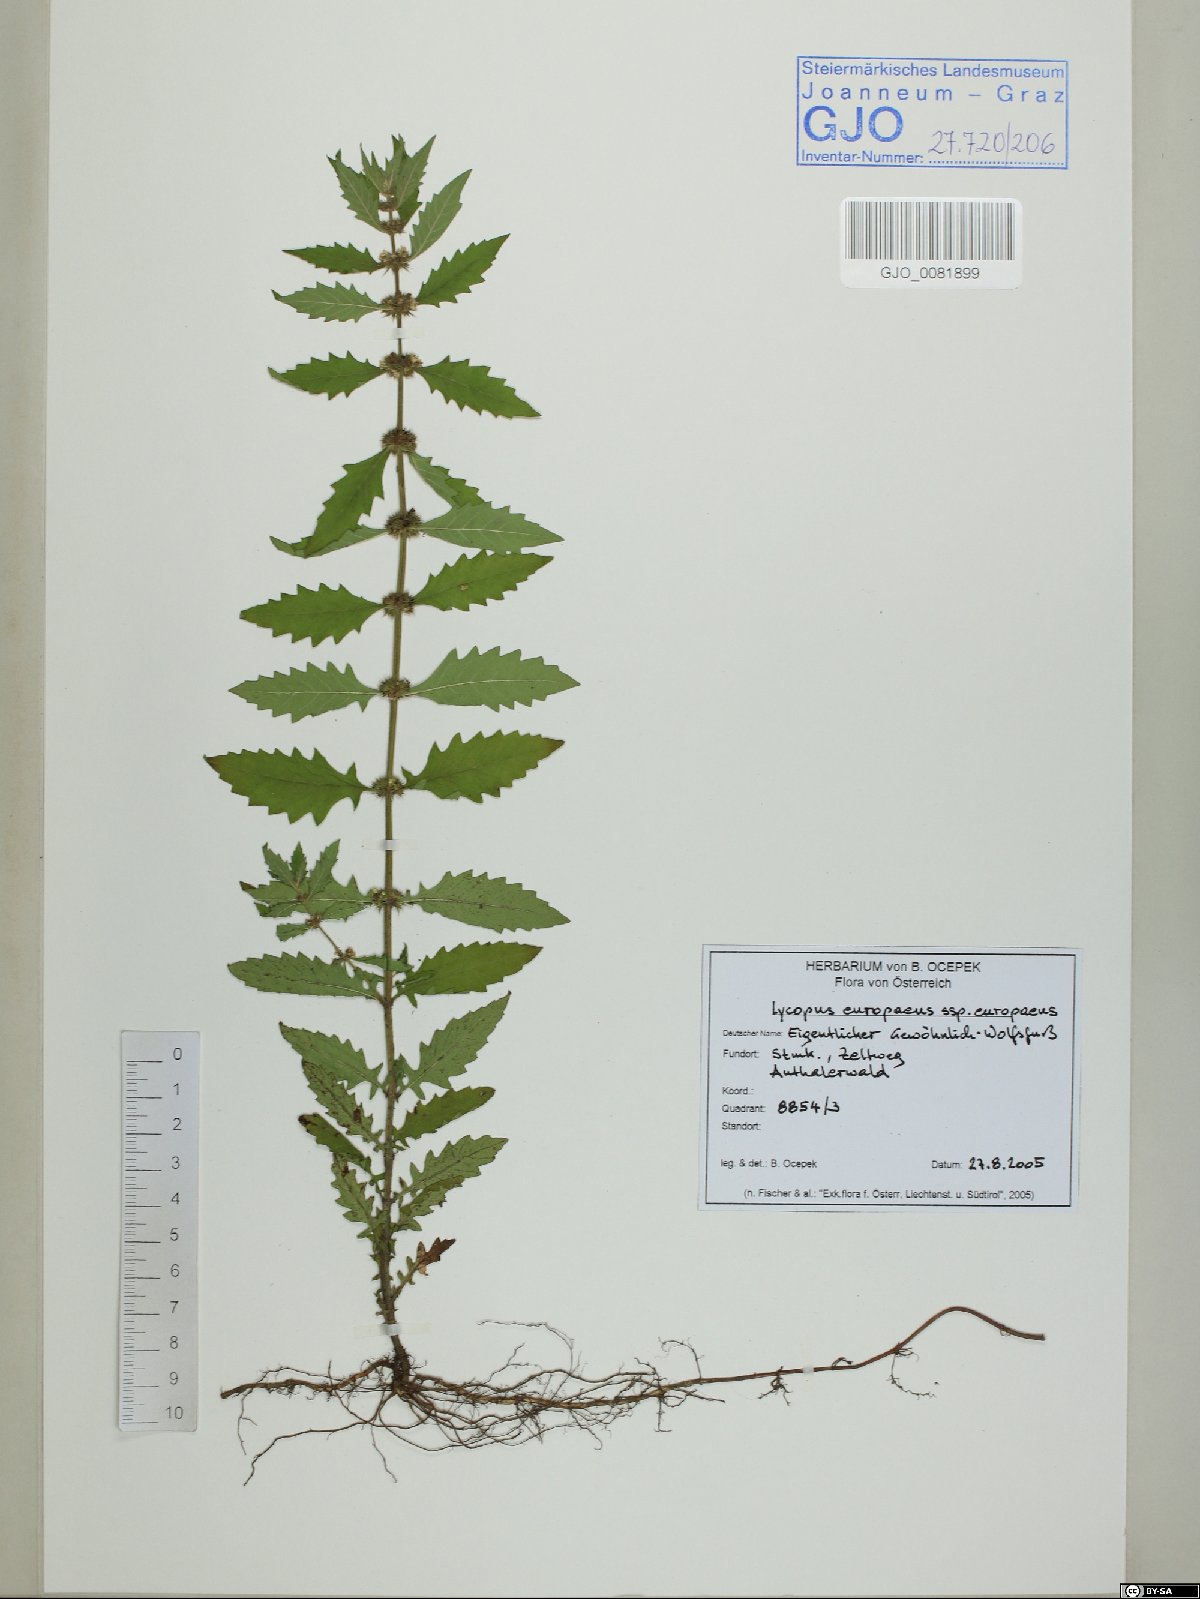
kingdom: Plantae
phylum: Tracheophyta
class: Magnoliopsida
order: Lamiales
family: Lamiaceae
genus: Lycopus
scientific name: Lycopus europaeus
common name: European bugleweed
